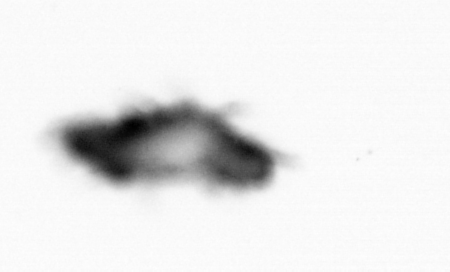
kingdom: Animalia
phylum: Annelida
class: Polychaeta
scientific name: Polychaeta
